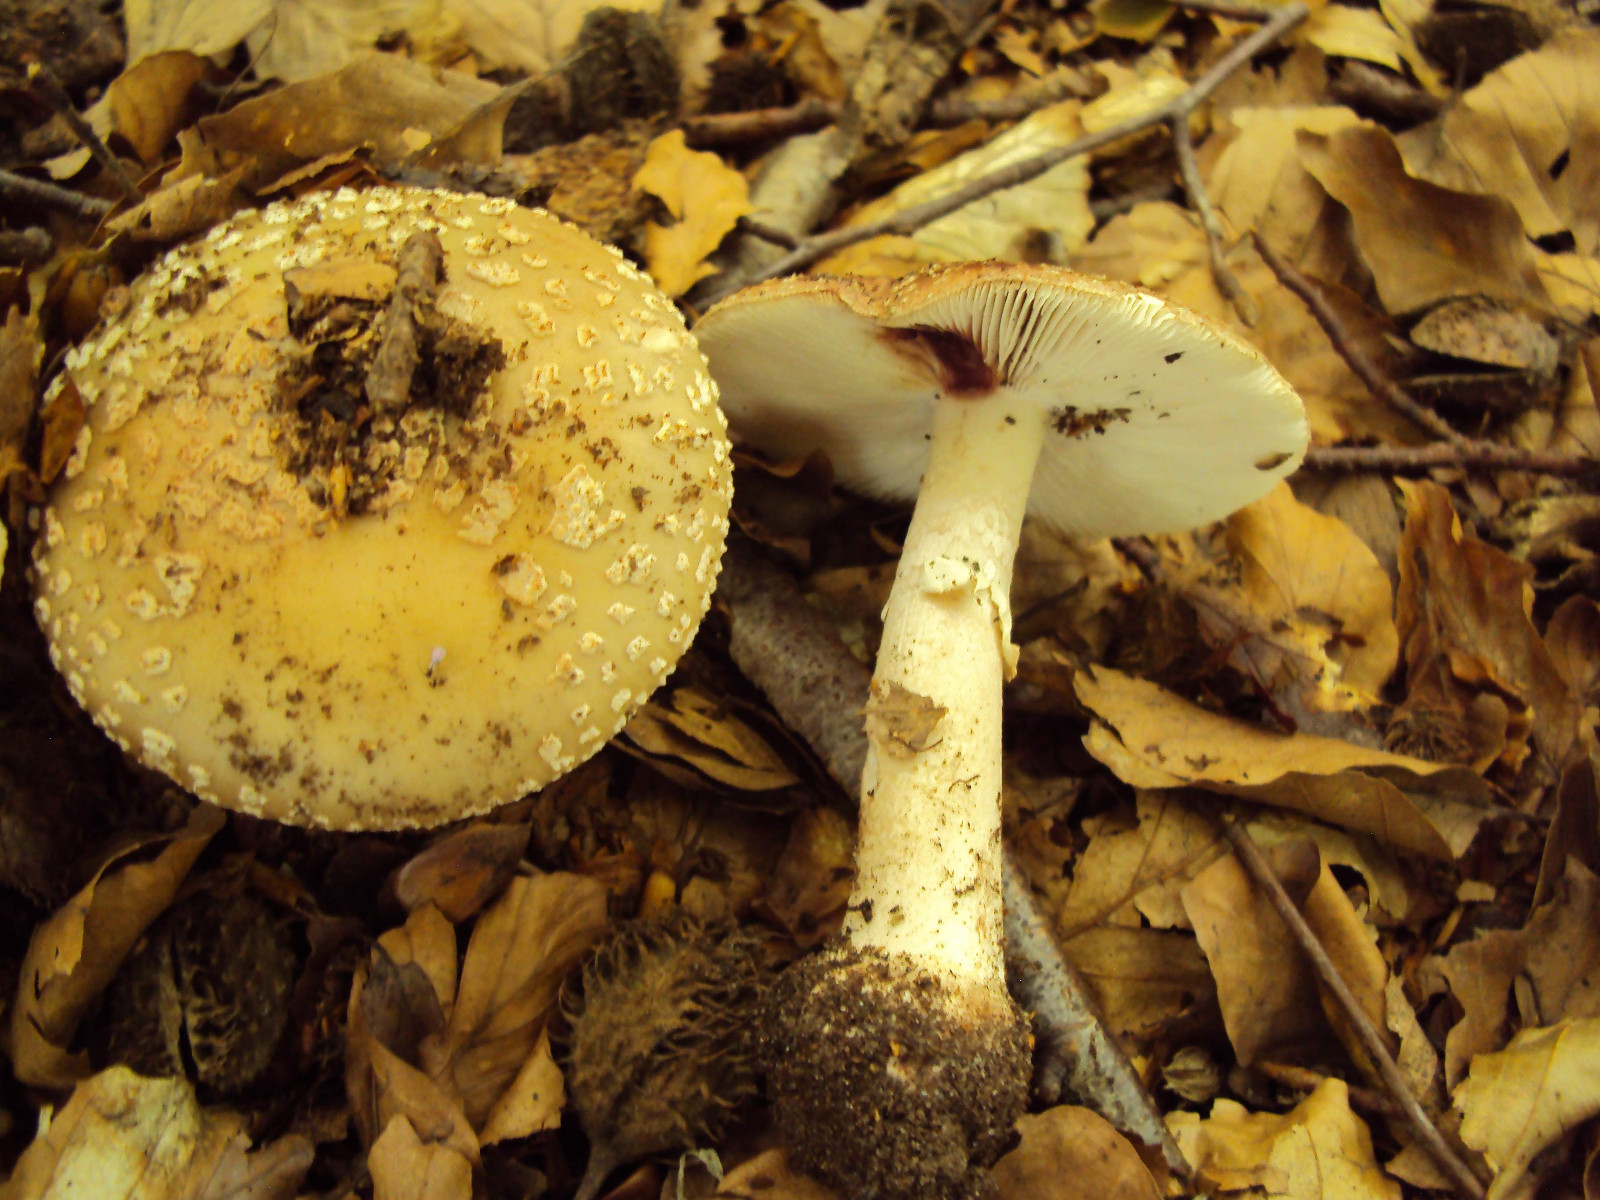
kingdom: Fungi
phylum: Basidiomycota
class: Agaricomycetes
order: Agaricales
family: Amanitaceae
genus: Amanita
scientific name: Amanita rubescens
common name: rødmende fluesvamp
